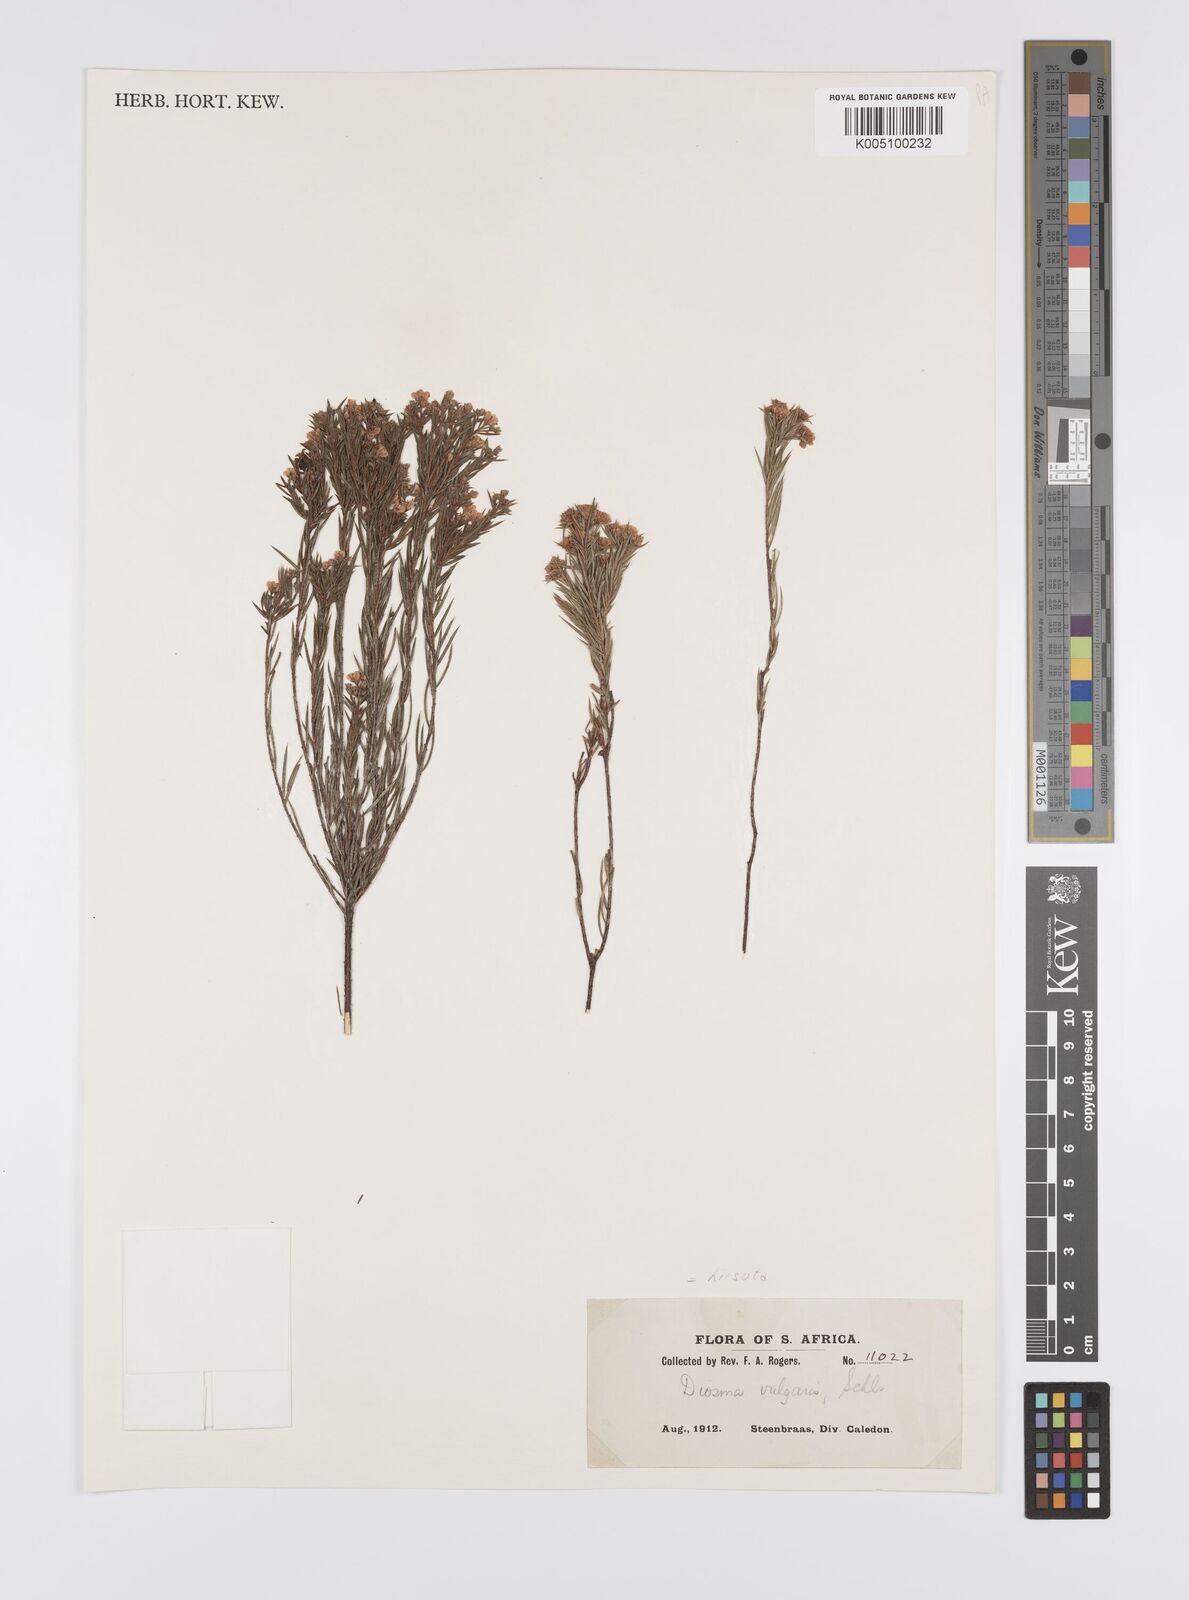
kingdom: Plantae
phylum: Tracheophyta
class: Magnoliopsida
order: Sapindales
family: Rutaceae
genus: Diosma
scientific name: Diosma hirsuta
